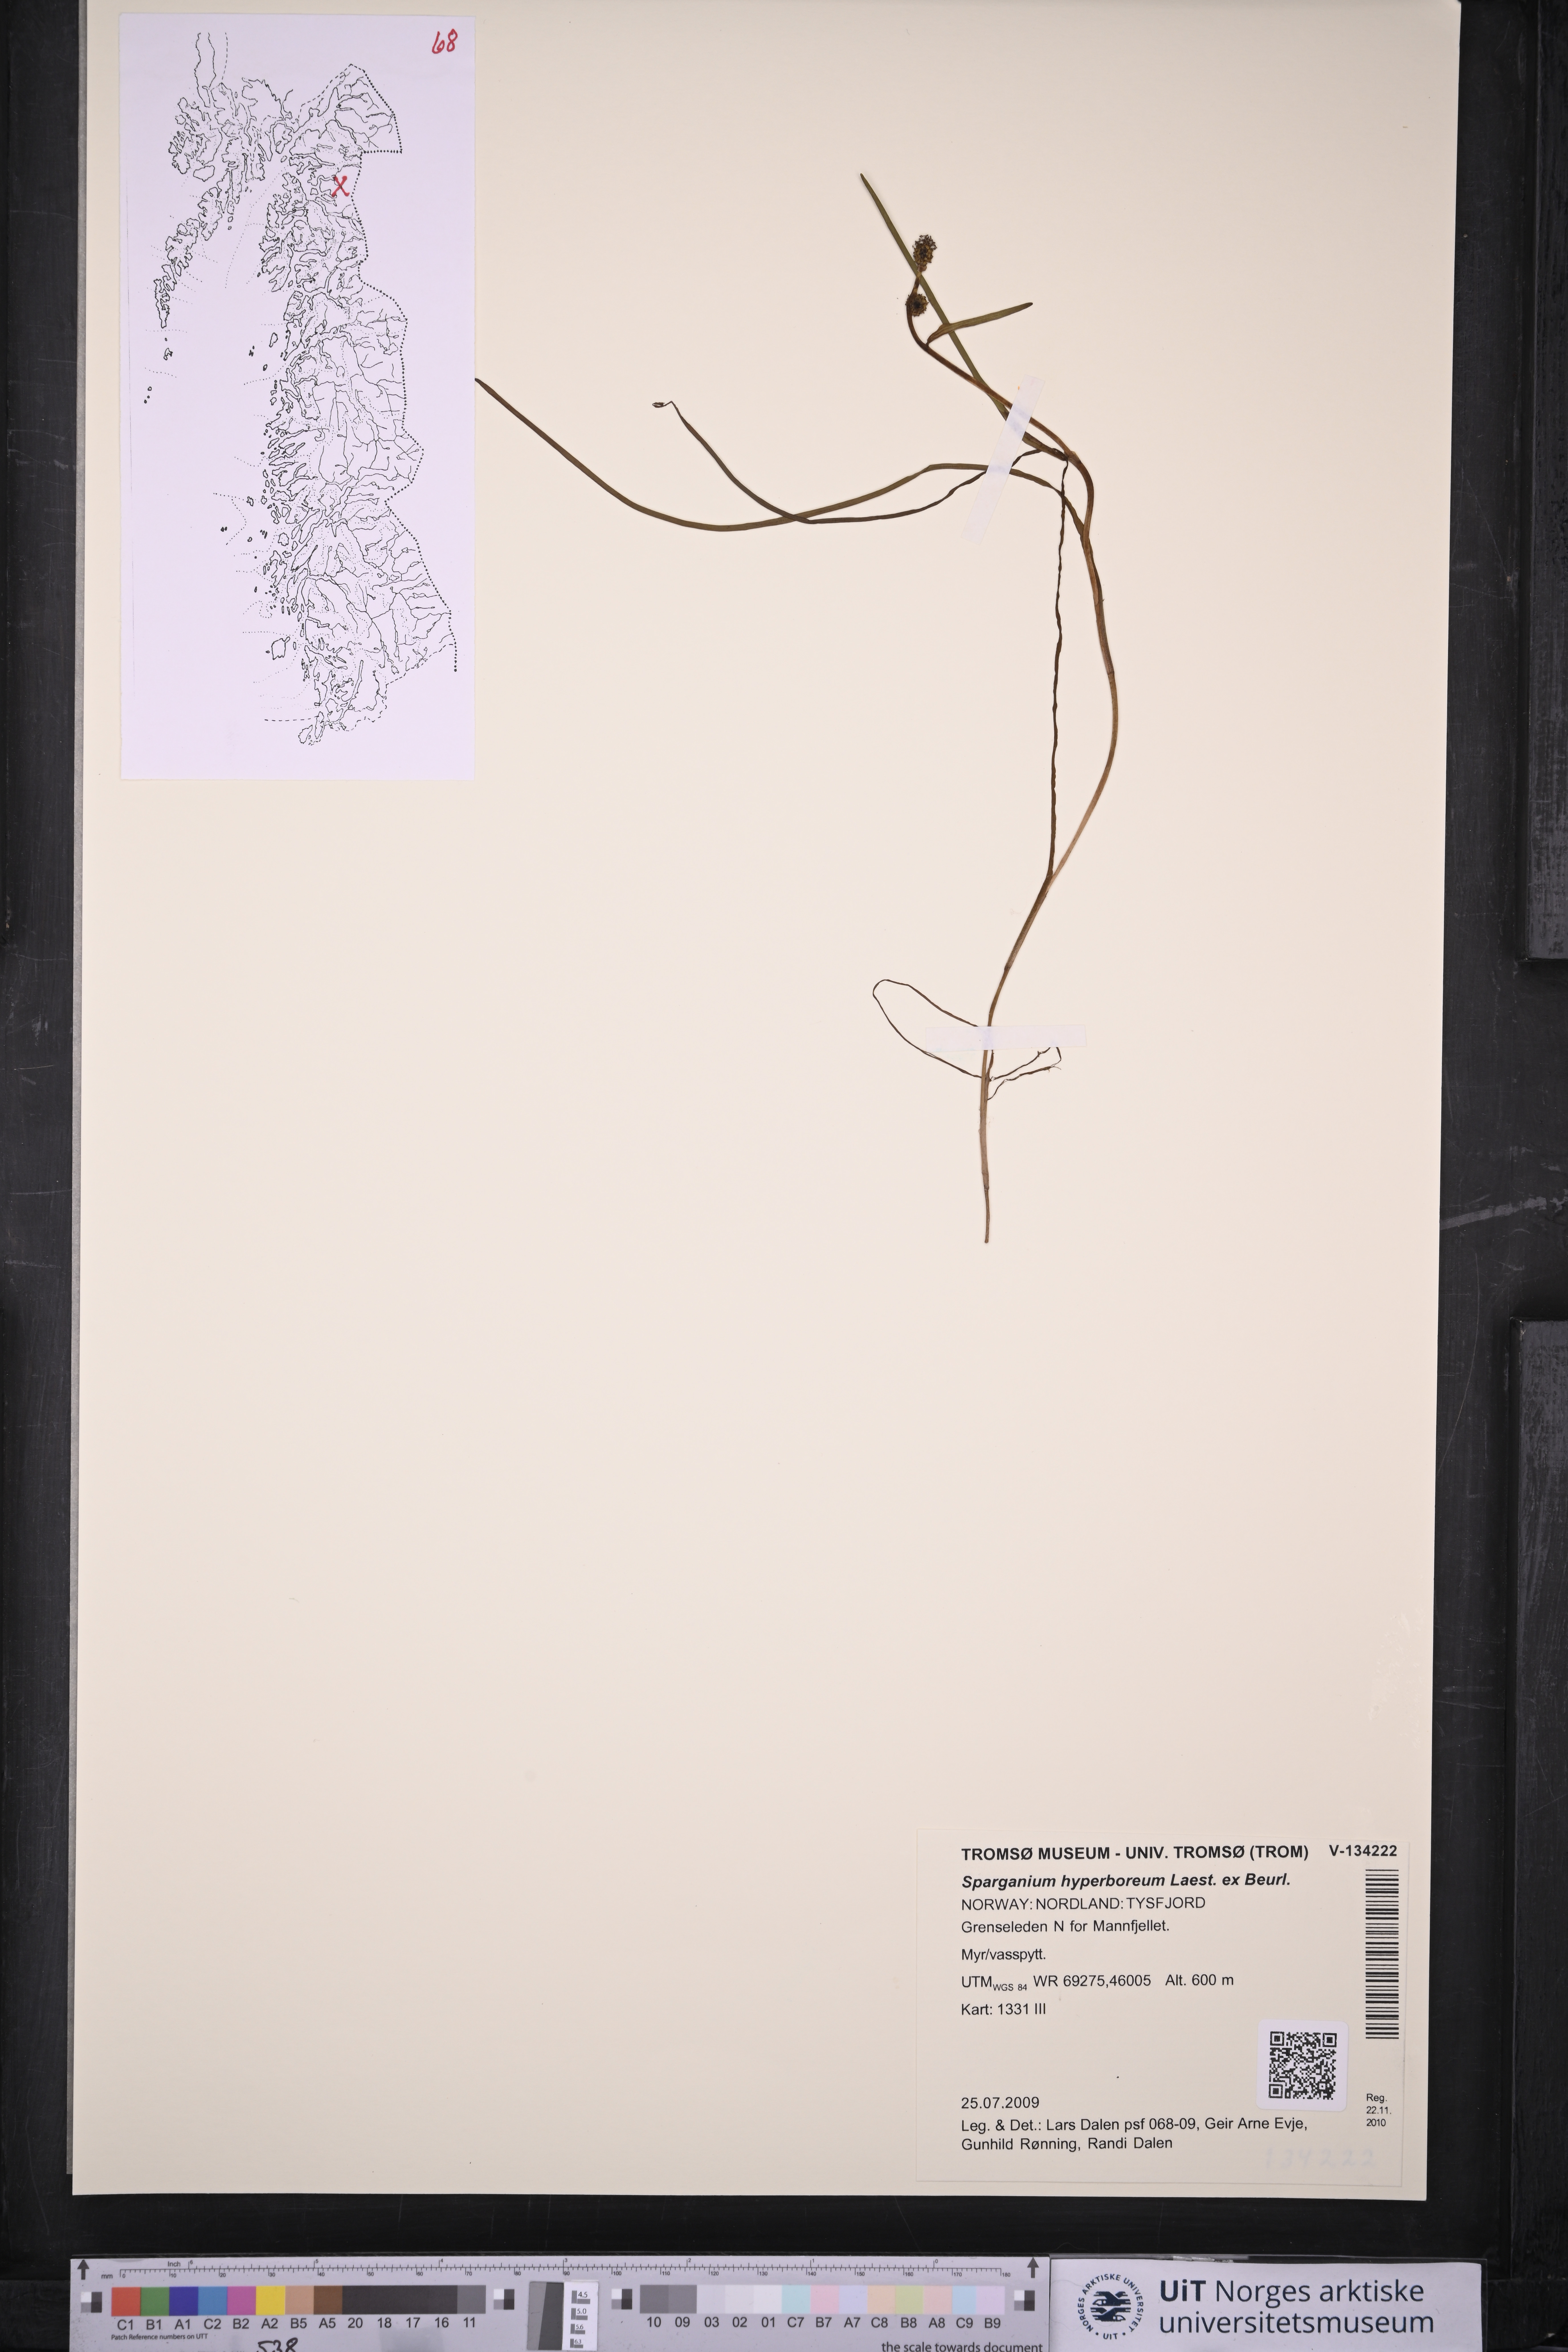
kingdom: Plantae
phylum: Tracheophyta
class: Liliopsida
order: Poales
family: Typhaceae
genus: Sparganium
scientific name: Sparganium hyperboreum
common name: Arctic burreed
